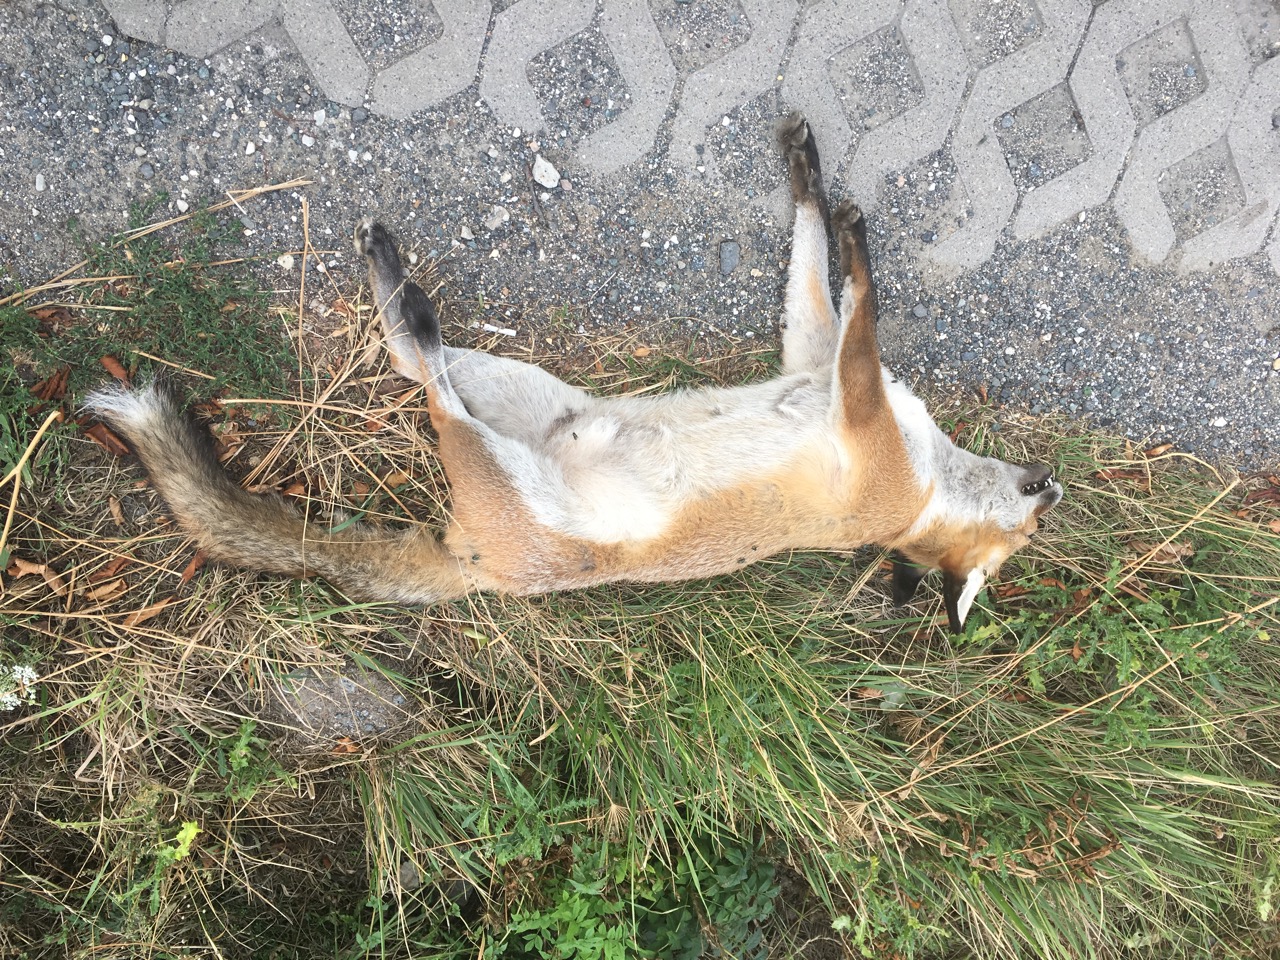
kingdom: Animalia
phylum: Chordata
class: Mammalia
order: Carnivora
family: Canidae
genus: Vulpes
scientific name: Vulpes vulpes
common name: Red fox
